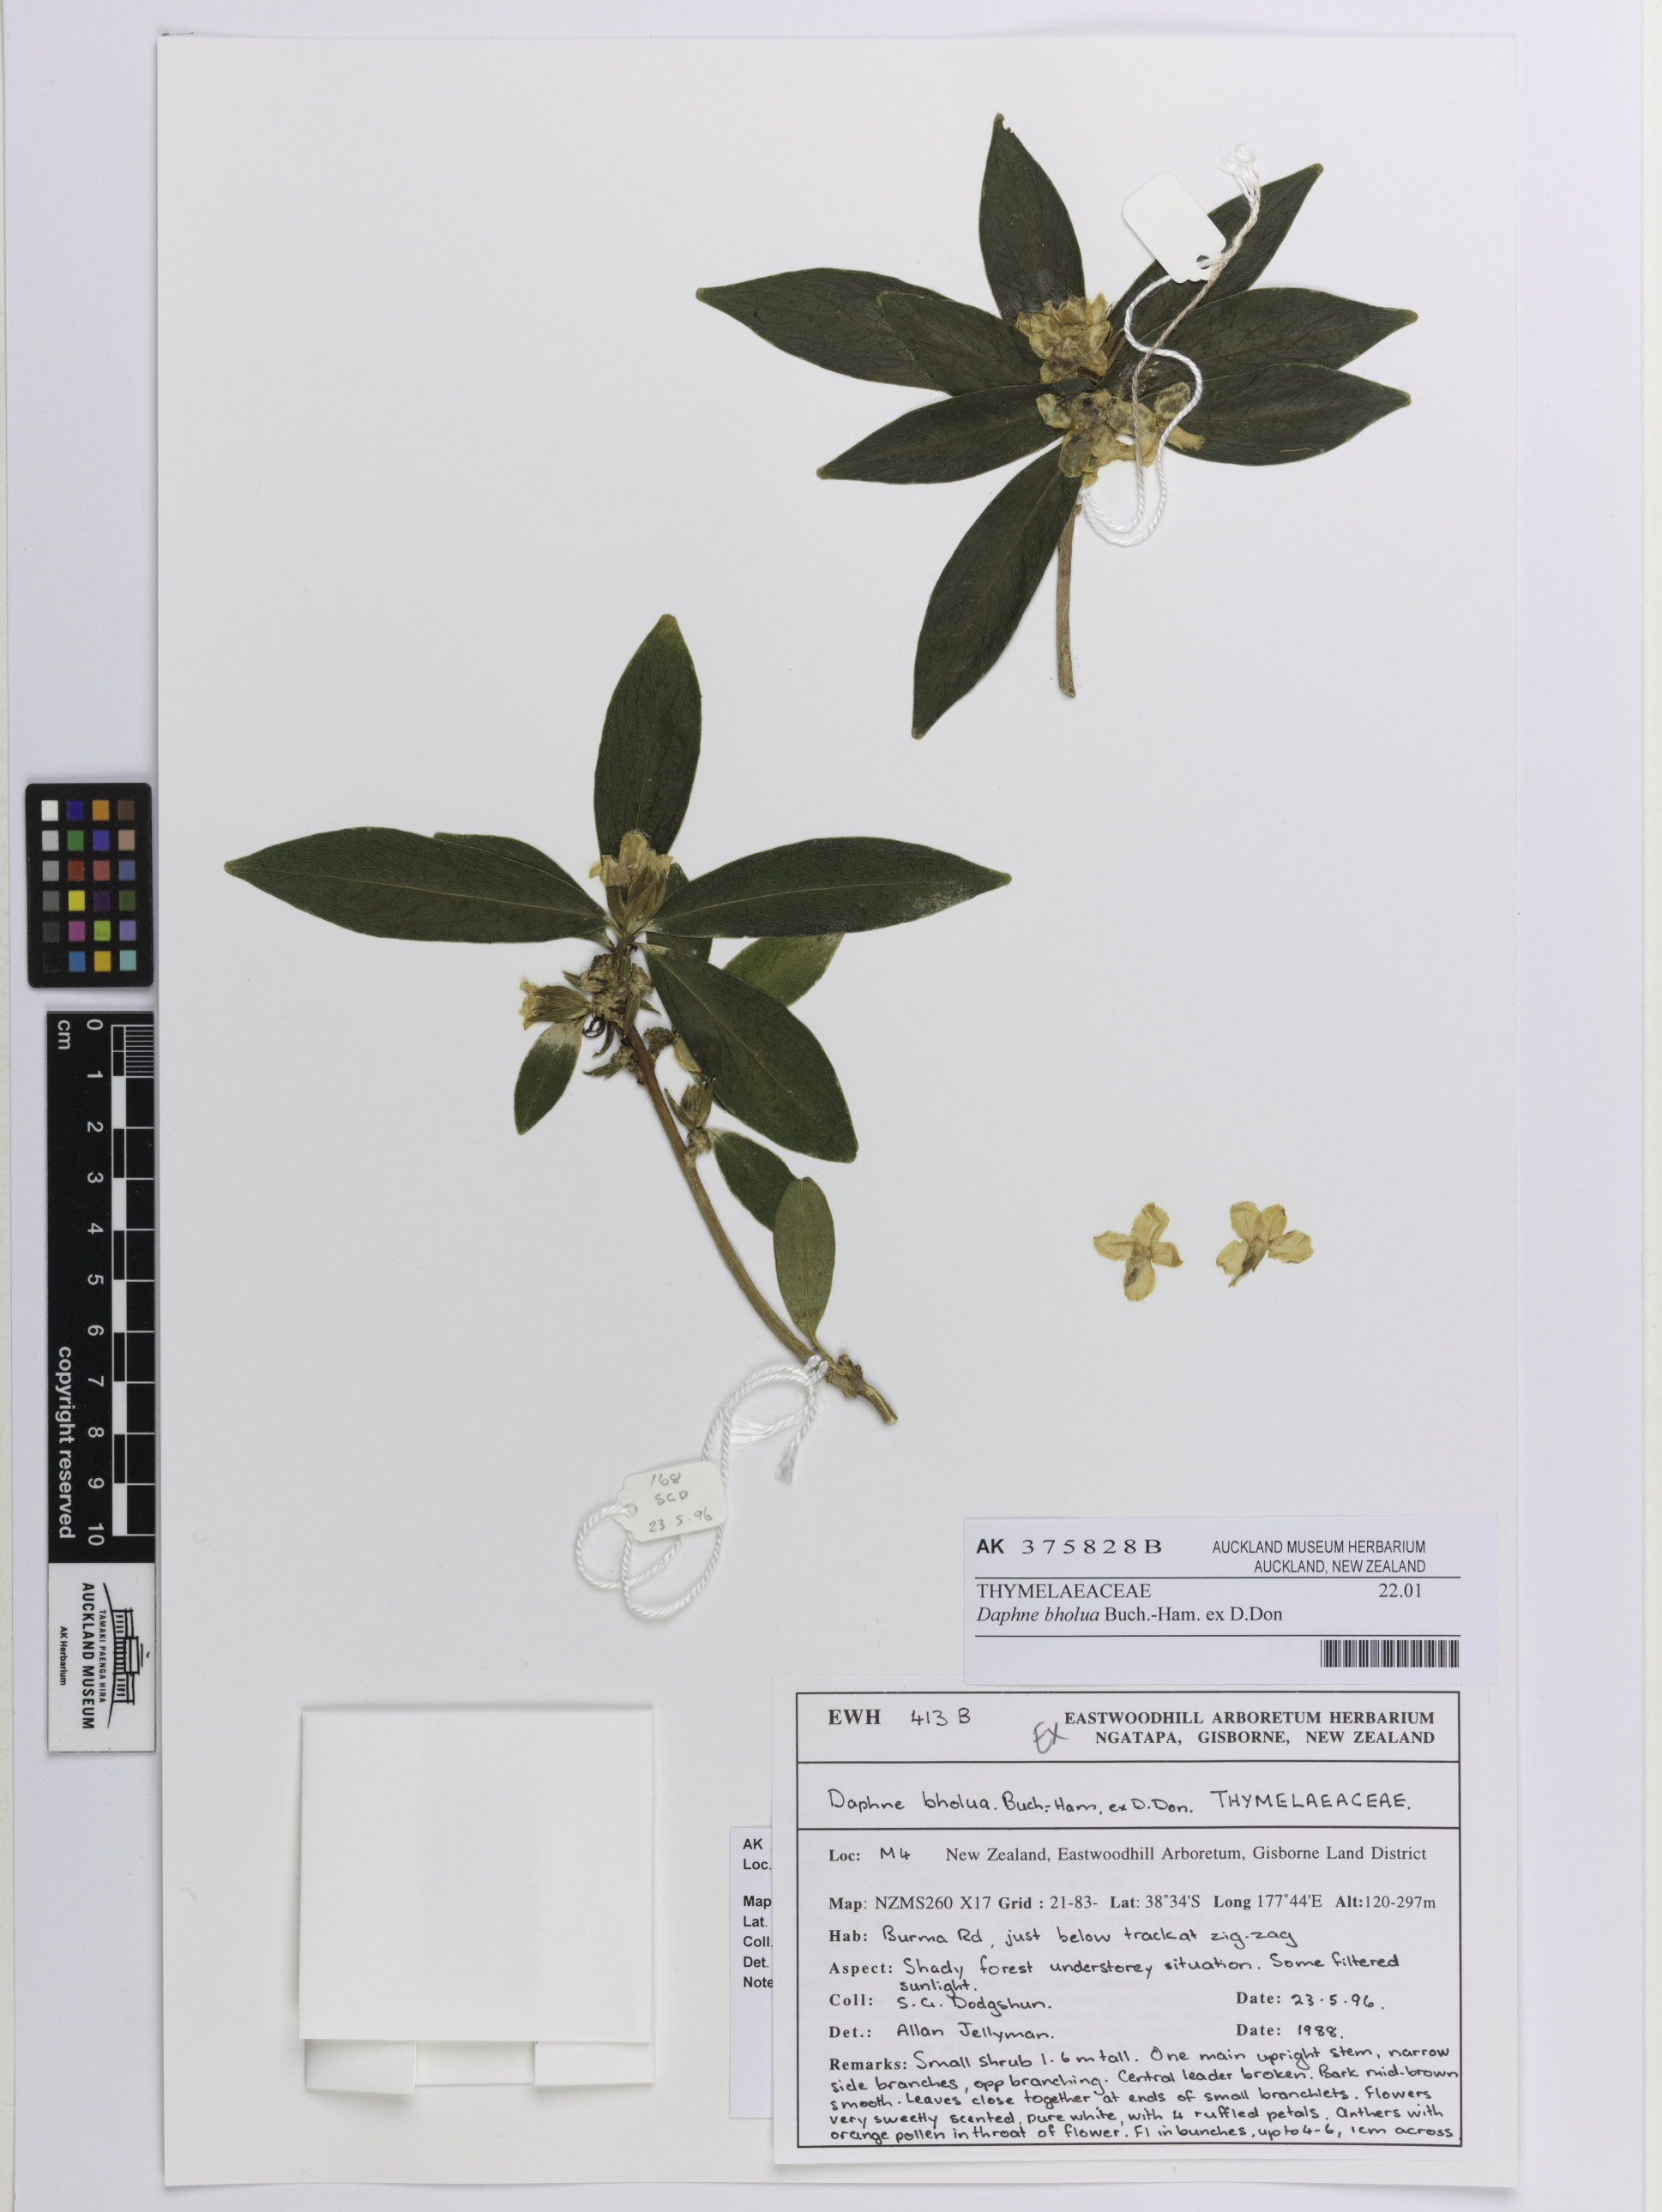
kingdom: Plantae
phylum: Tracheophyta
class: Magnoliopsida
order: Malvales
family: Thymelaeaceae
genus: Daphne
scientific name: Daphne bholua
